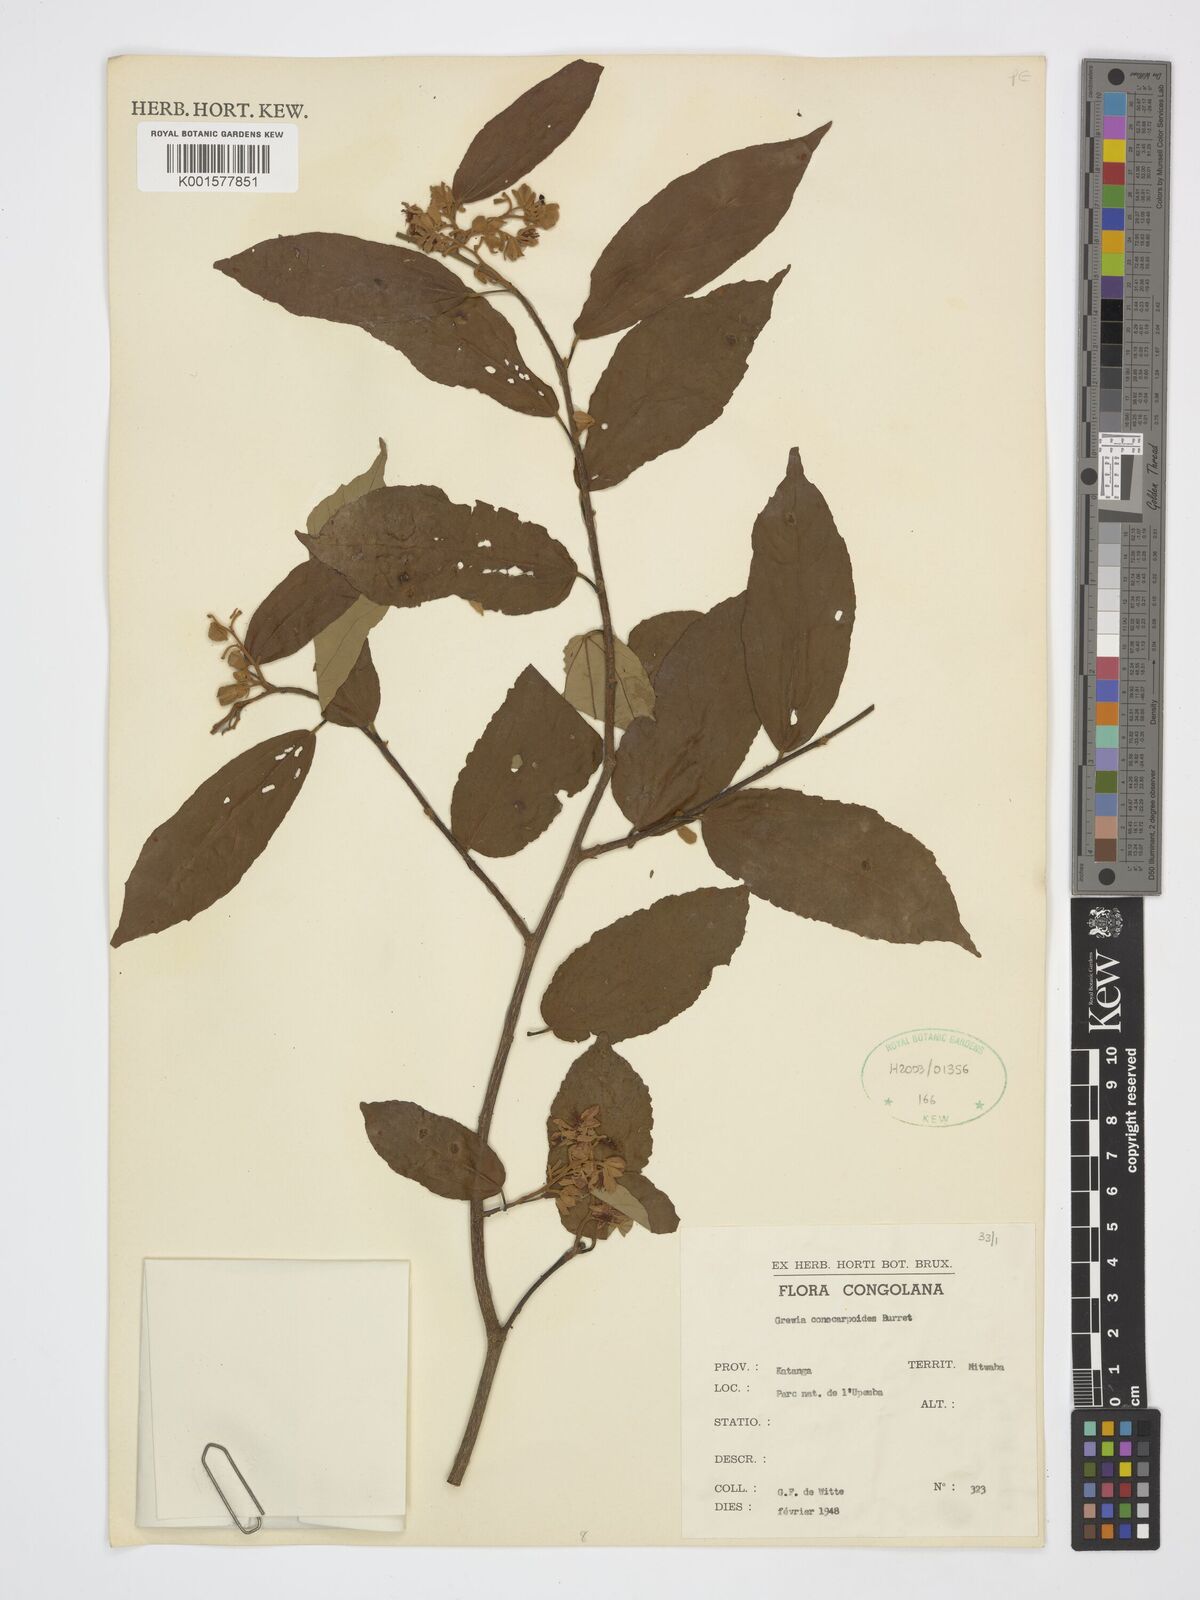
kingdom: Plantae
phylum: Tracheophyta
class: Magnoliopsida
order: Malvales
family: Malvaceae
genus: Microcos
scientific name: Microcos conocarpoides
